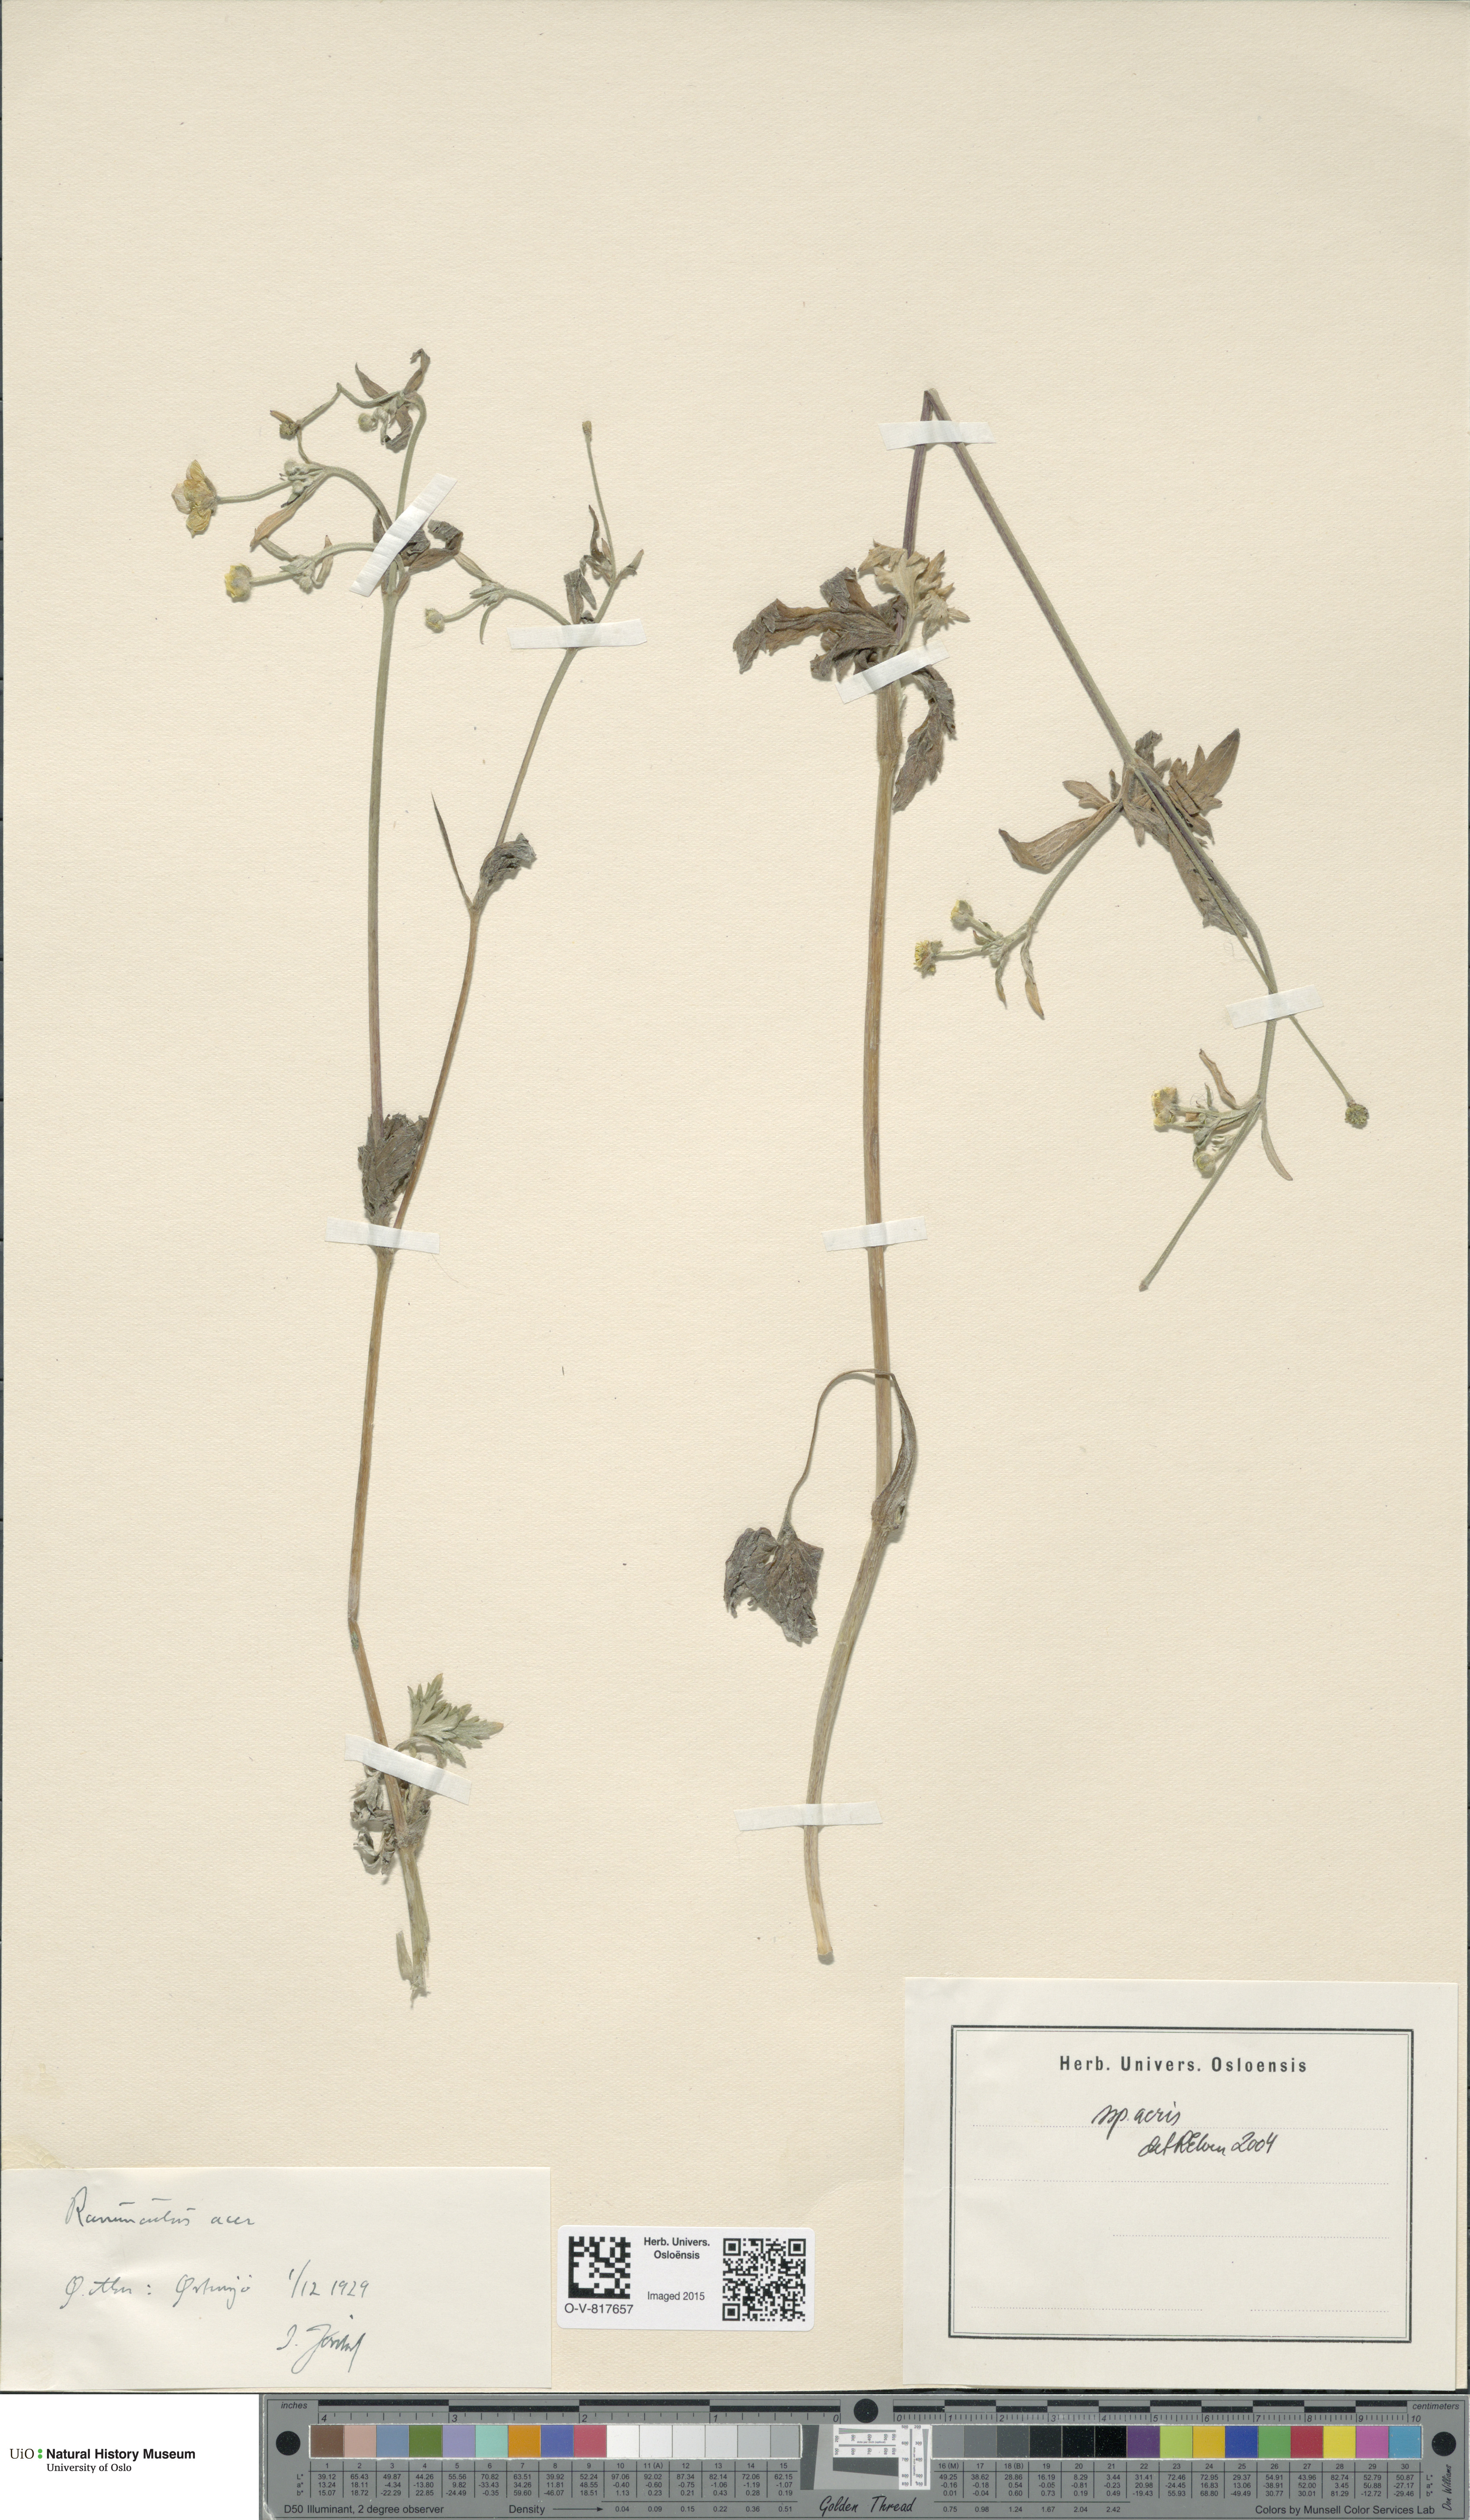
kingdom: Plantae
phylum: Tracheophyta
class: Magnoliopsida
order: Ranunculales
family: Ranunculaceae
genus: Ranunculus
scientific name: Ranunculus acris
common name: Meadow buttercup
